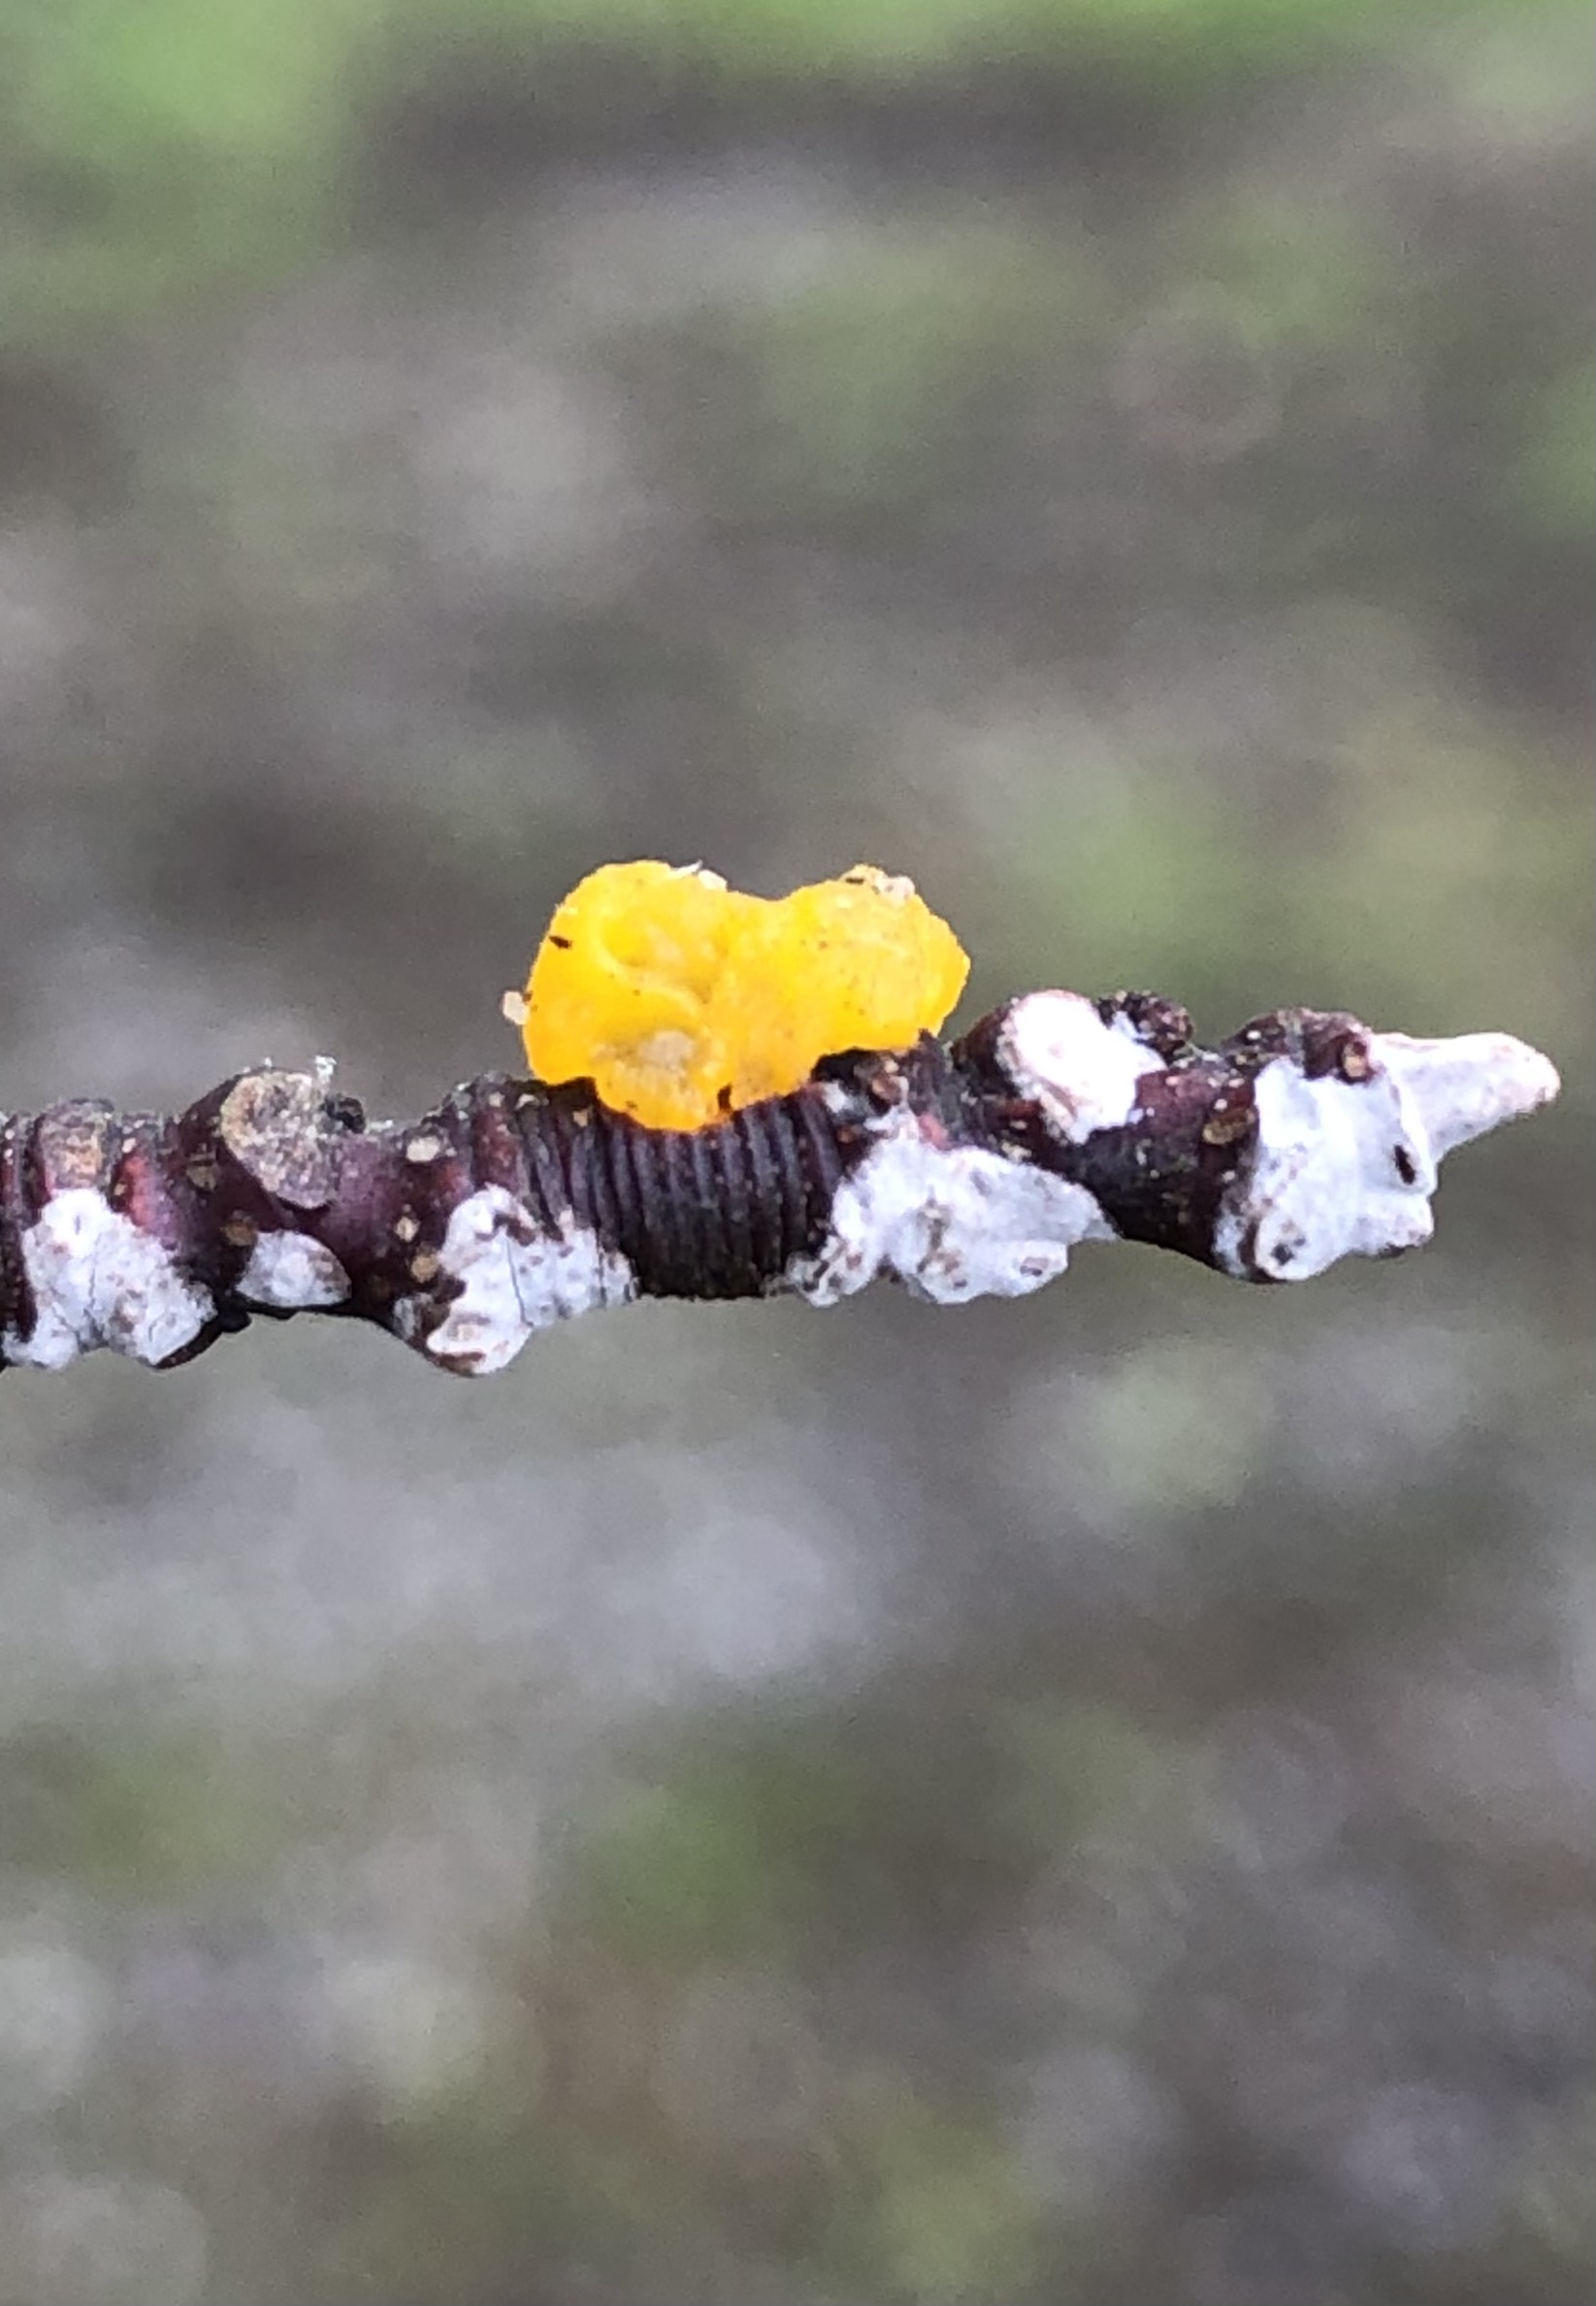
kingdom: Fungi
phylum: Basidiomycota
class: Tremellomycetes
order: Tremellales
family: Tremellaceae
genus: Tremella
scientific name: Tremella mesenterica
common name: gul bævresvamp
